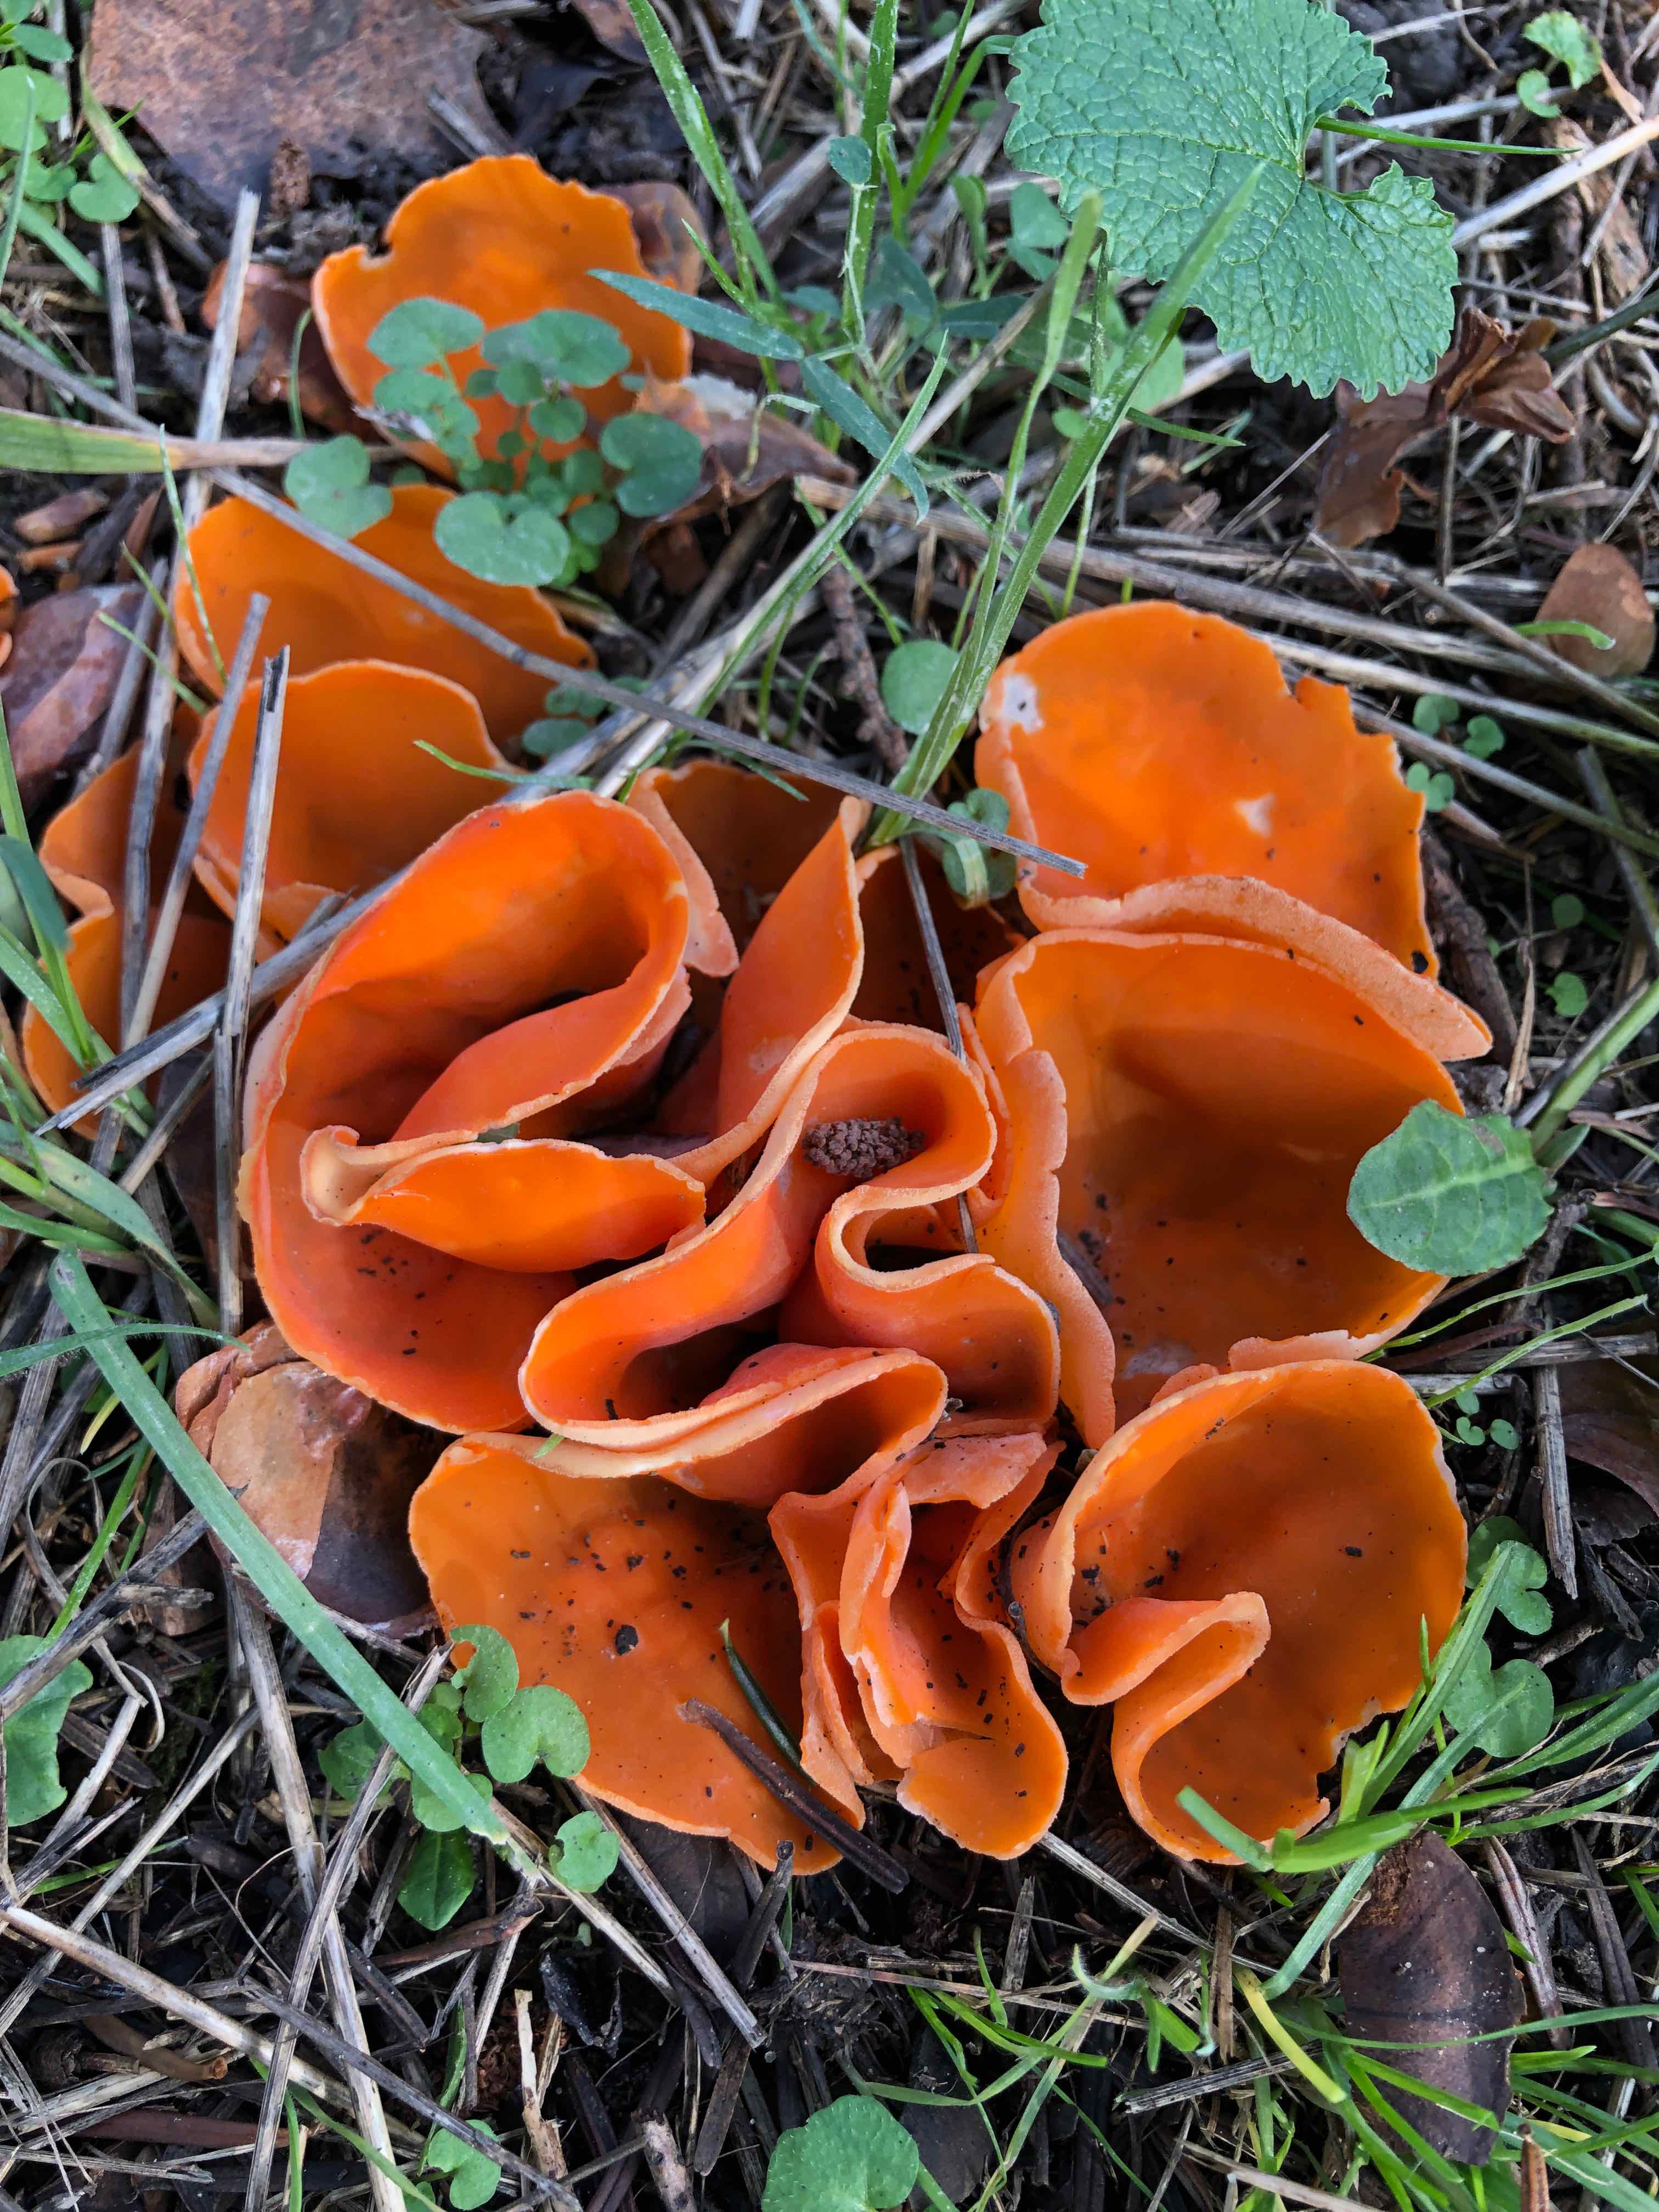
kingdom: Fungi
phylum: Ascomycota
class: Pezizomycetes
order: Pezizales
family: Pyronemataceae
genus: Aleuria
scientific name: Aleuria aurantia
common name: almindelig orangebæger
